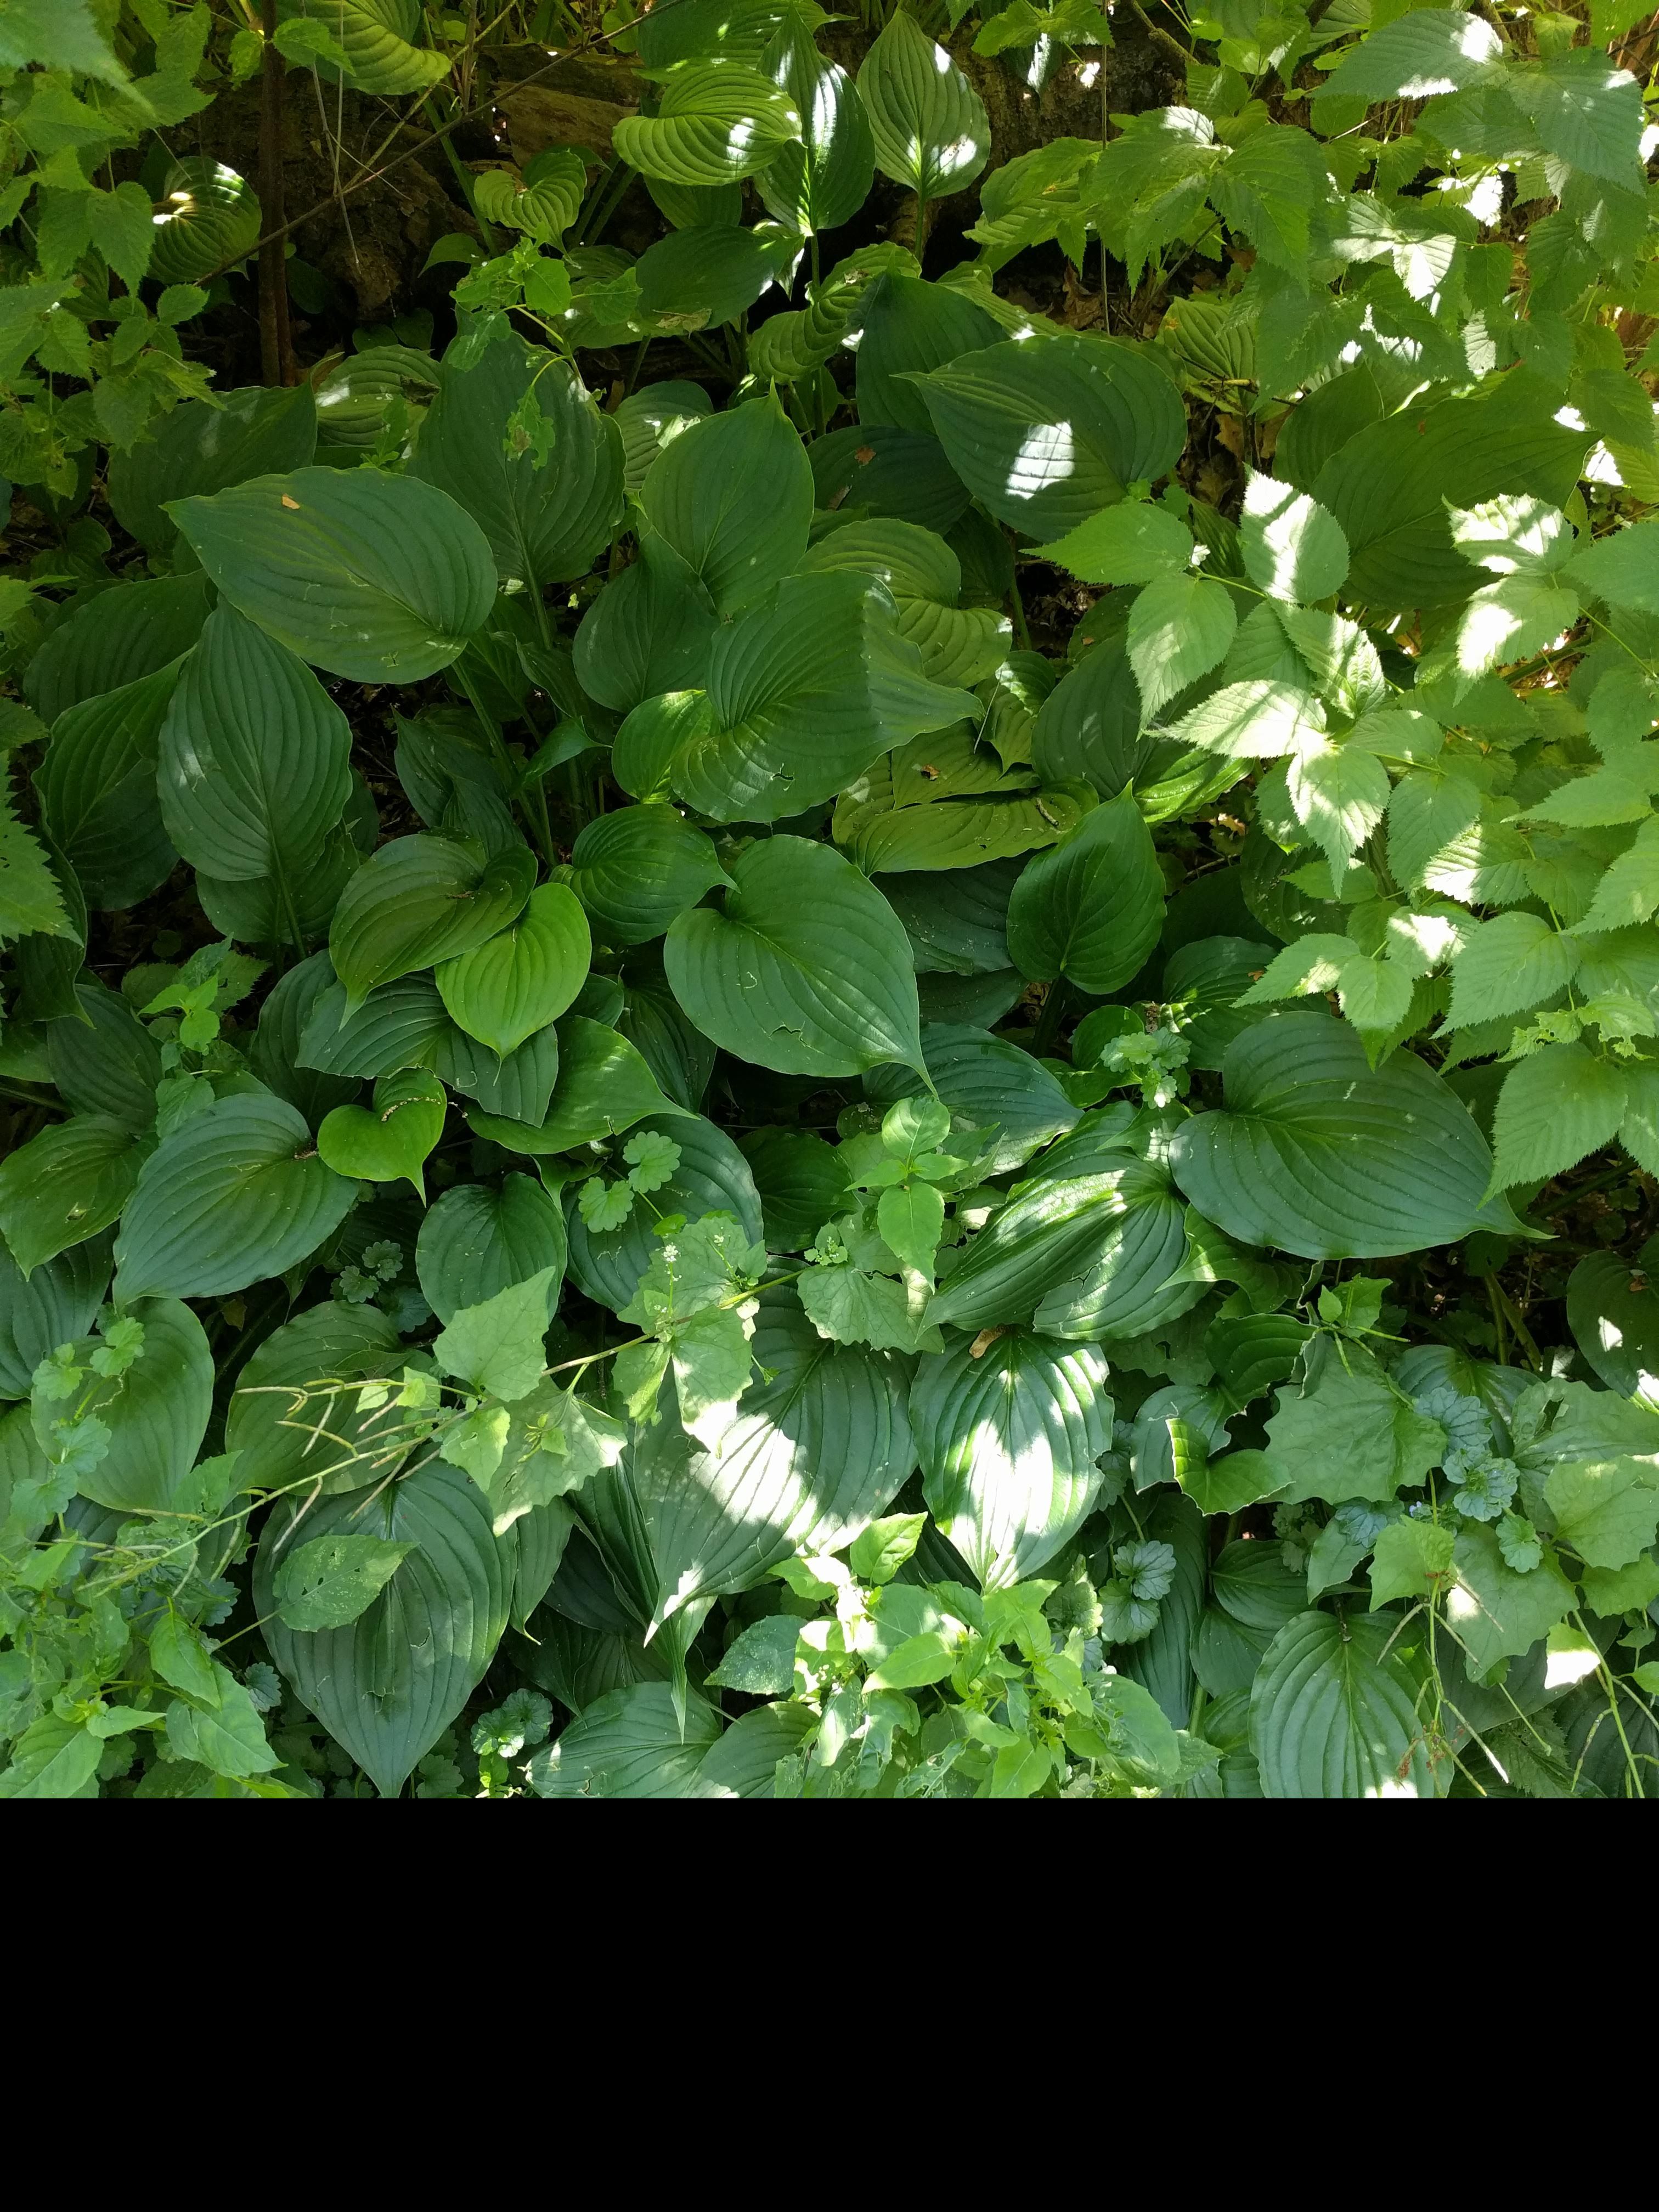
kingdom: Plantae
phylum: Tracheophyta
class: Liliopsida
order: Asparagales
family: Asparagaceae
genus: Hosta
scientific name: Hosta plantaginea
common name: August-lily
